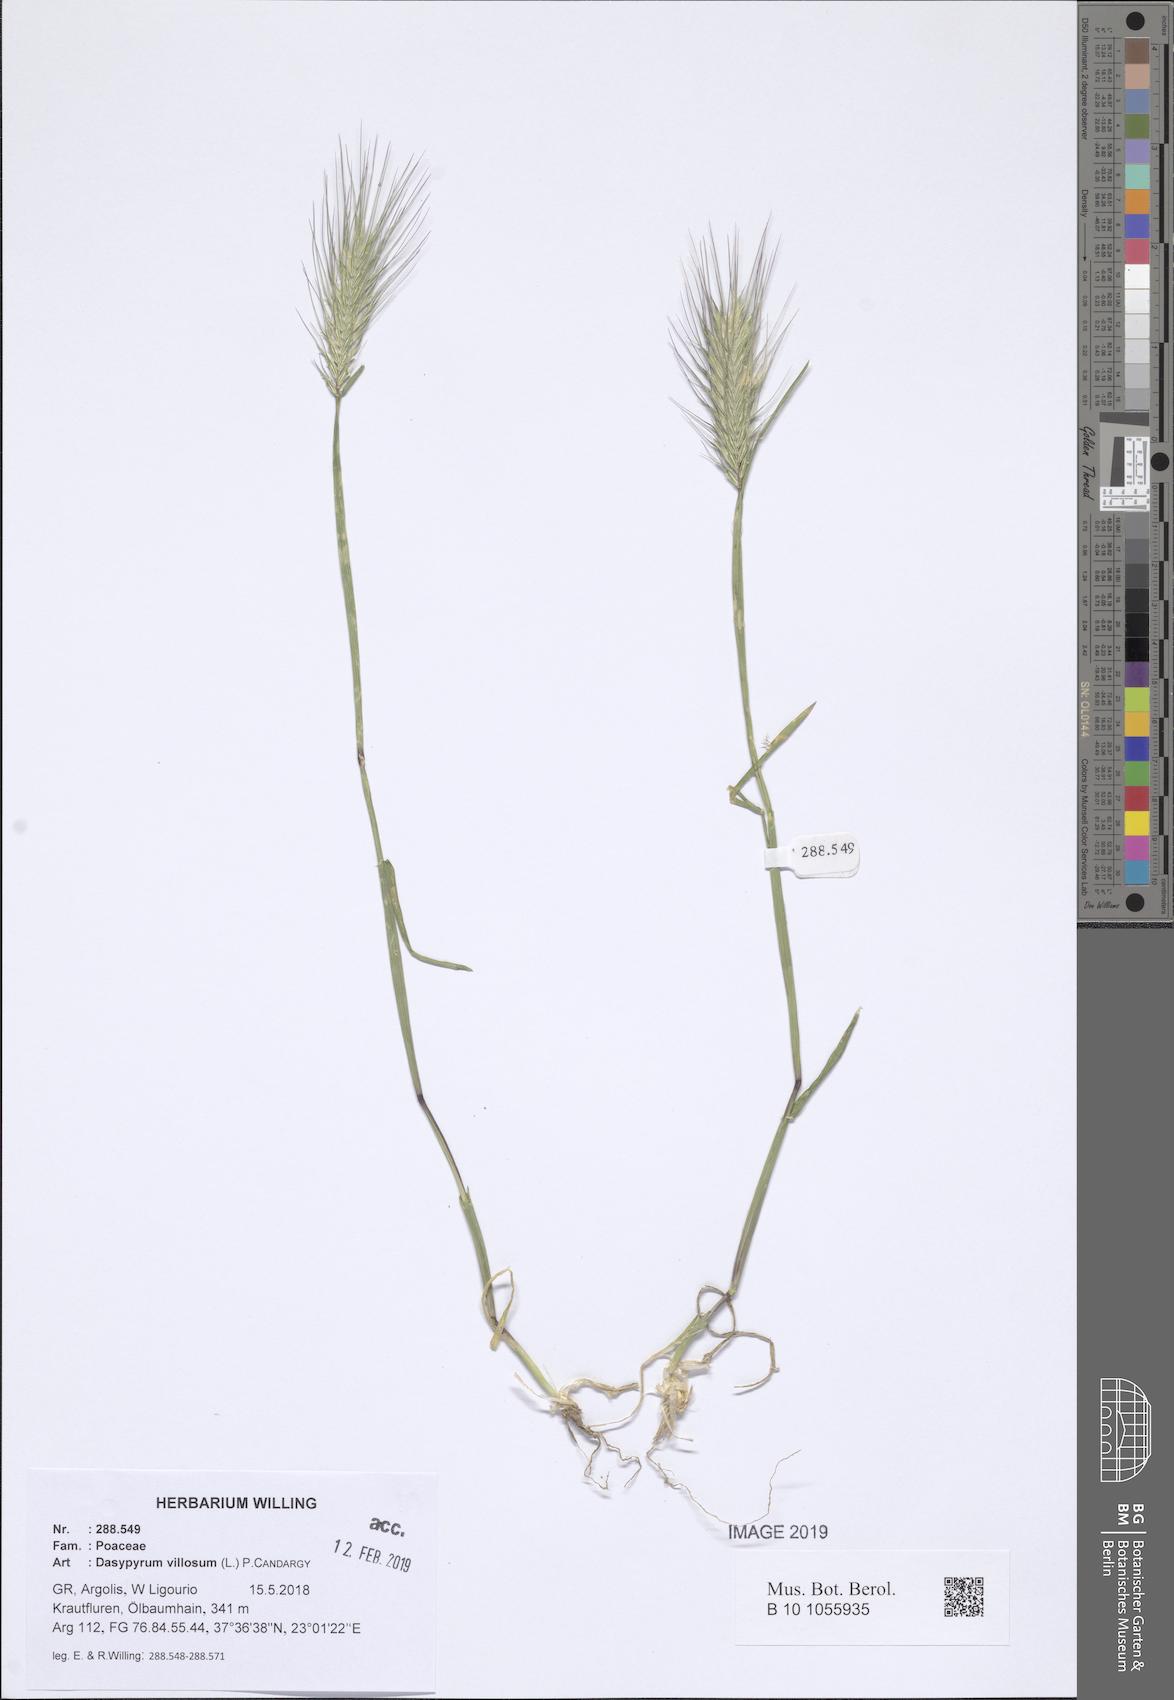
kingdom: Plantae
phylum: Tracheophyta
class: Liliopsida
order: Poales
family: Poaceae
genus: Dasypyrum
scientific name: Dasypyrum villosum
